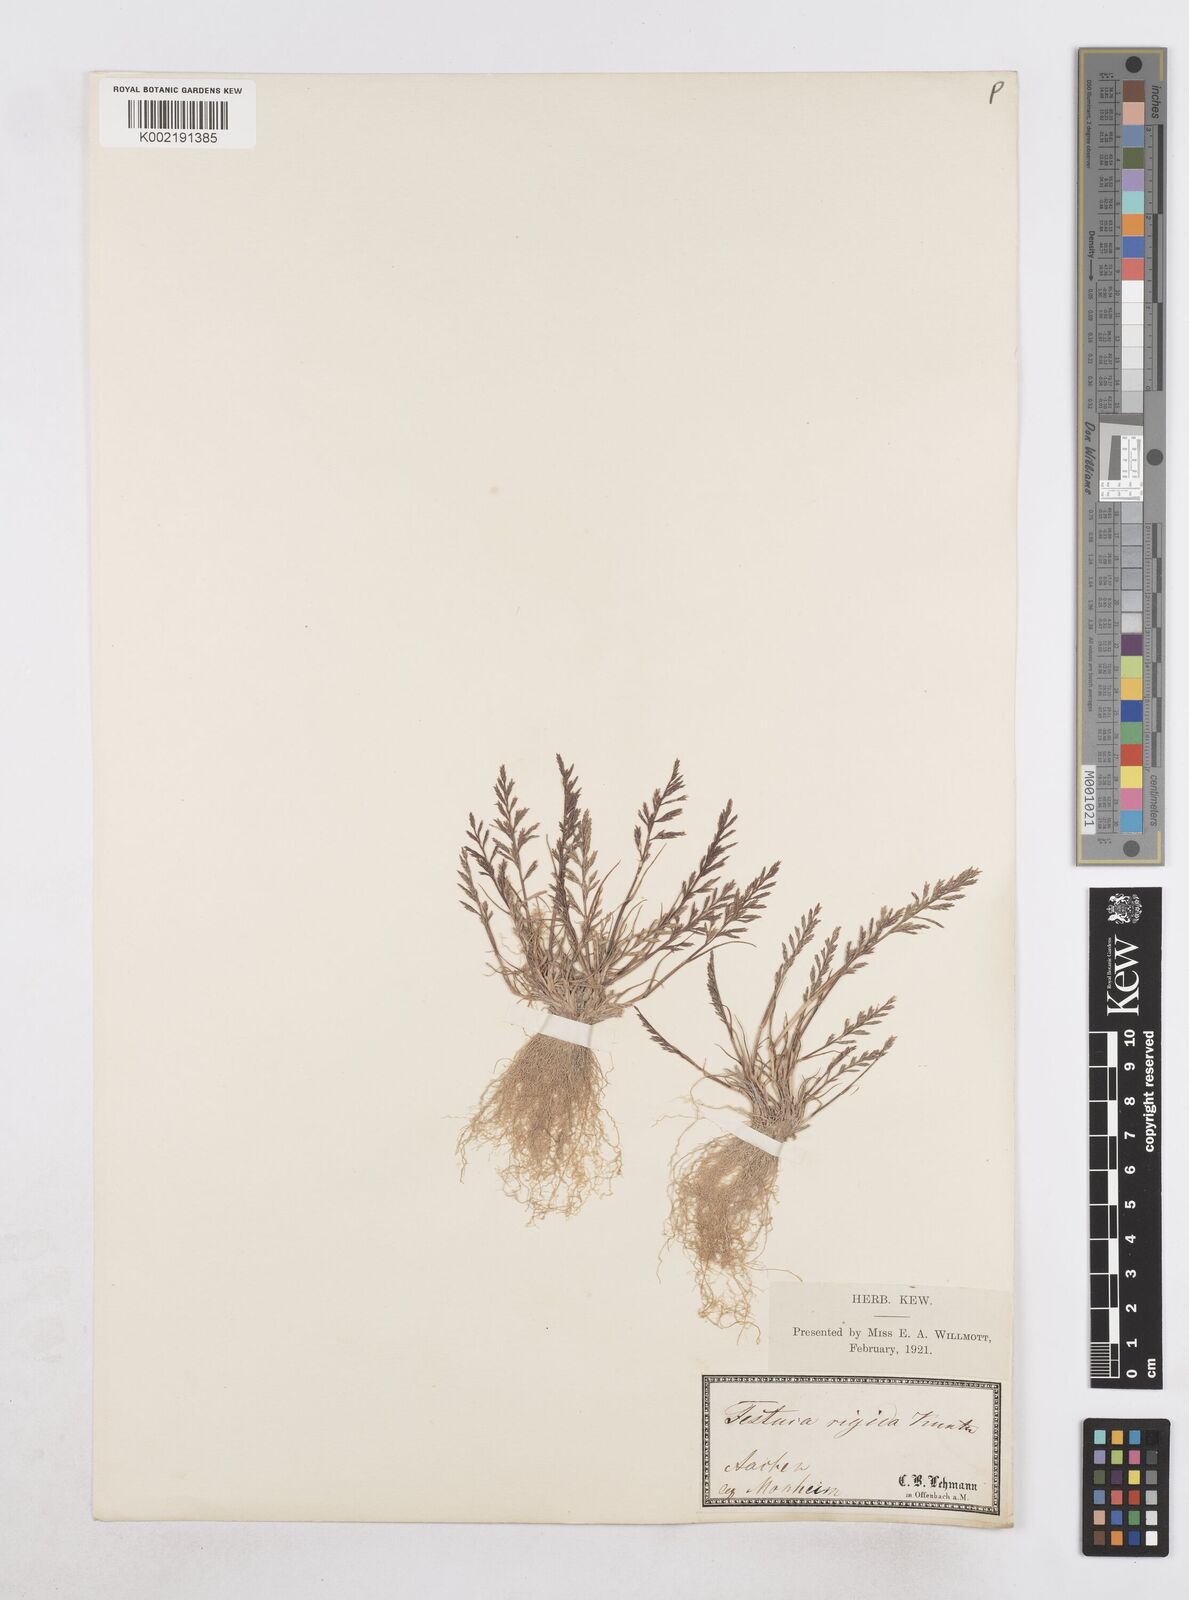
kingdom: Plantae
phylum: Tracheophyta
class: Liliopsida
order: Poales
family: Poaceae
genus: Catapodium
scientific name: Catapodium rigidum
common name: Fern-grass
